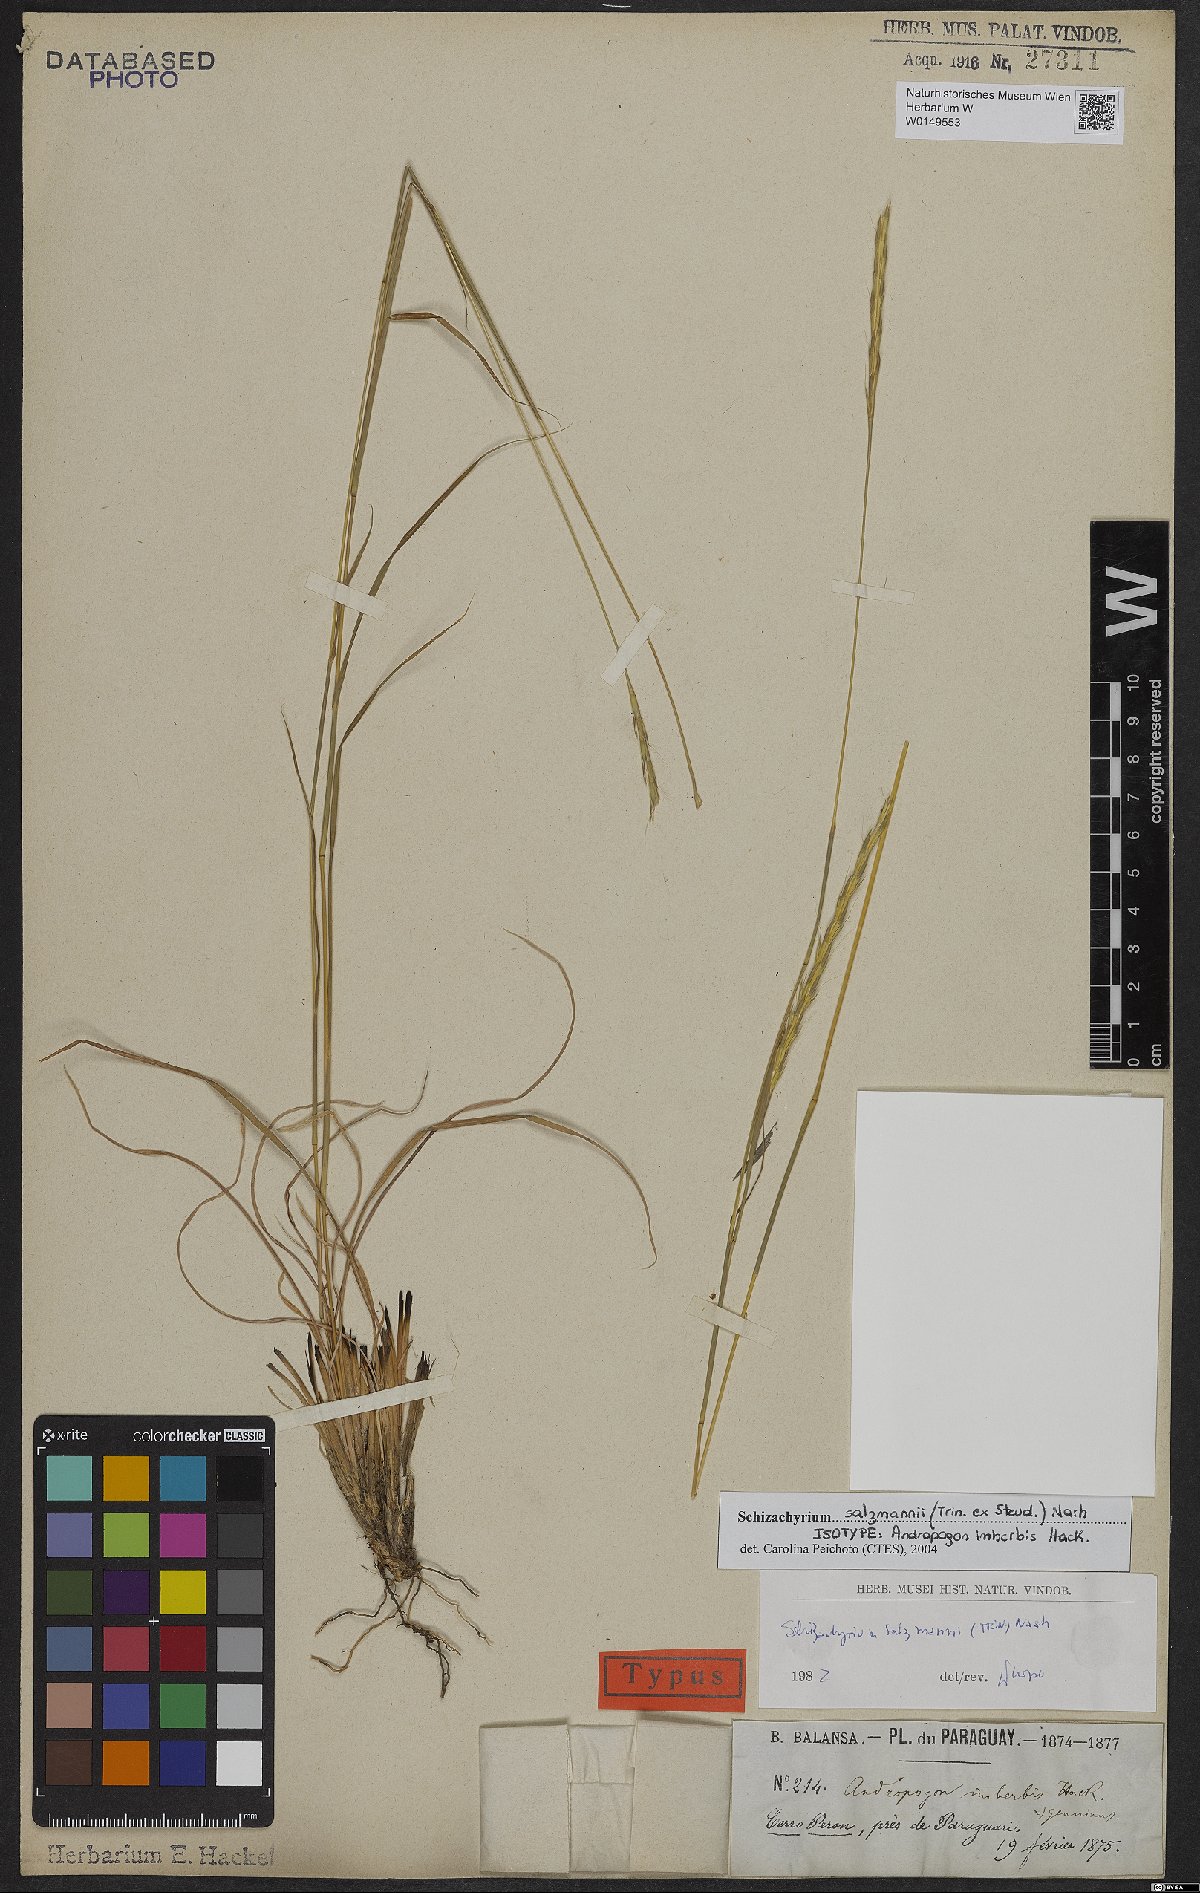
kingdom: Plantae
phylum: Tracheophyta
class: Liliopsida
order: Poales
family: Poaceae
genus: Andropogon
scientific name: Andropogon salzmannii
